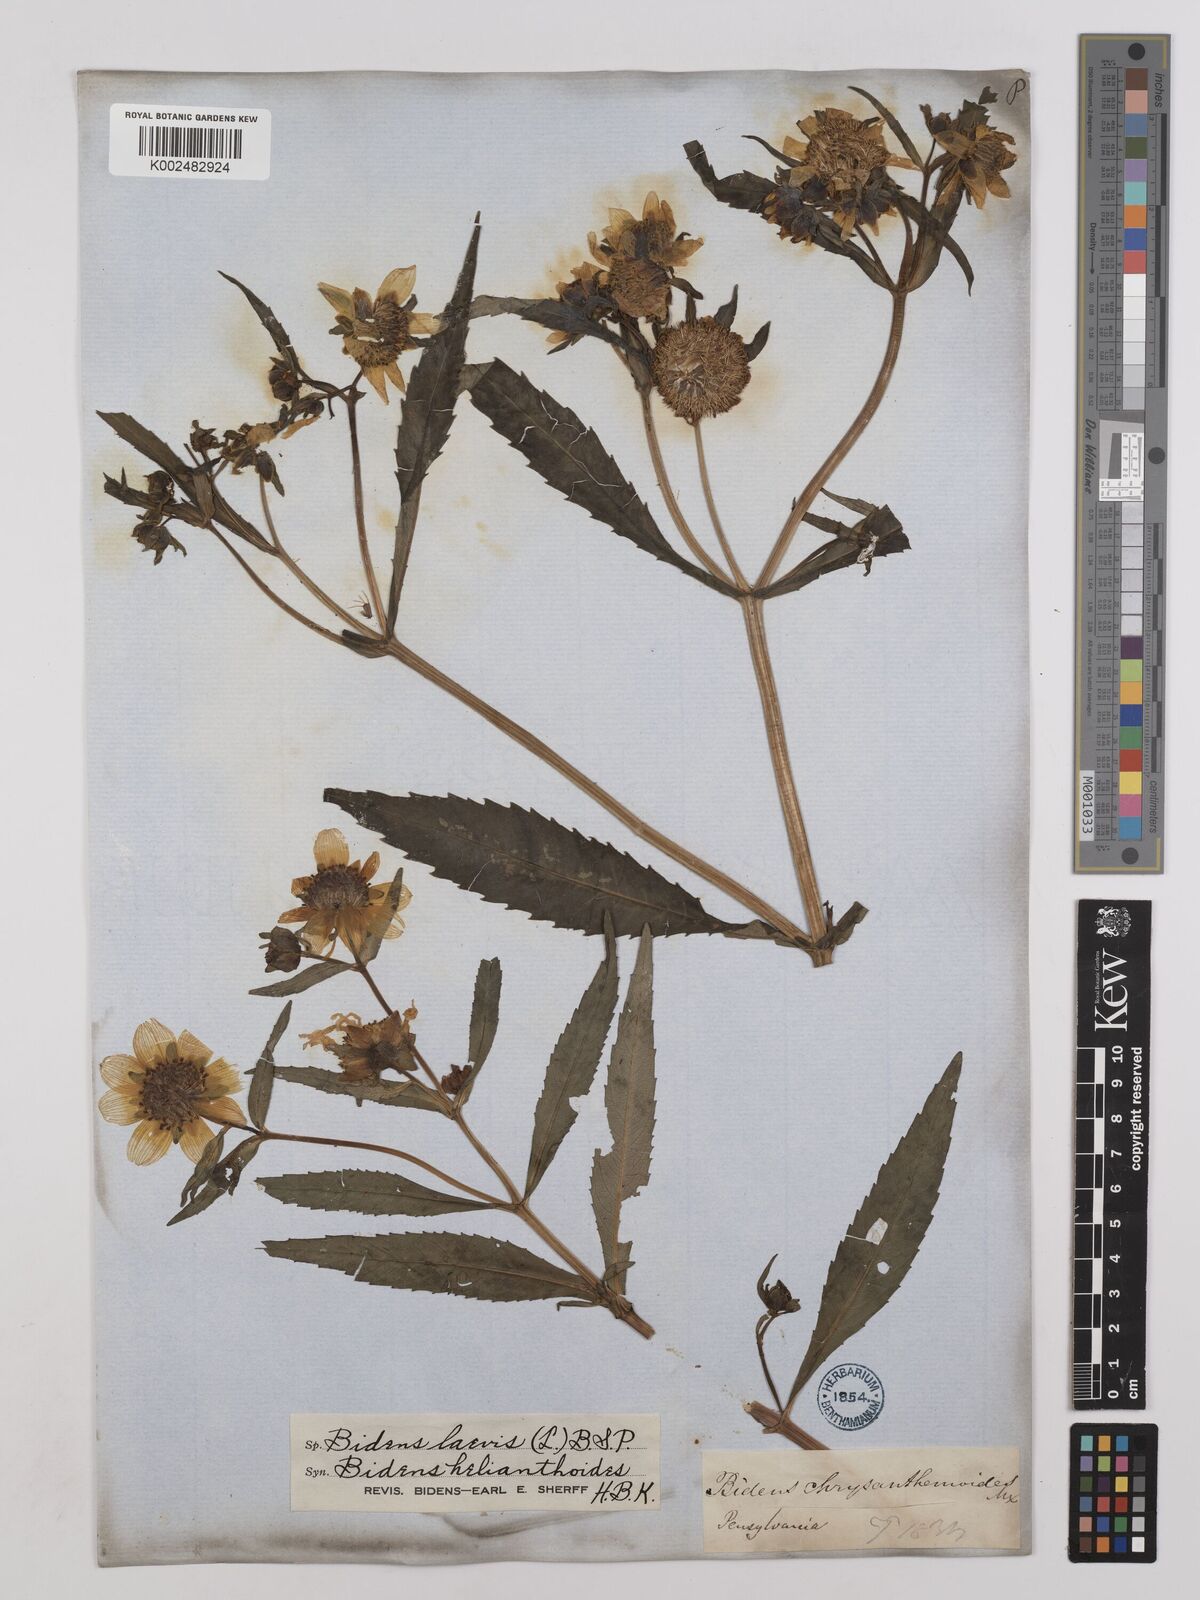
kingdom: Plantae
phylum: Tracheophyta
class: Magnoliopsida
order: Asterales
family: Asteraceae
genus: Bidens
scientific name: Bidens
